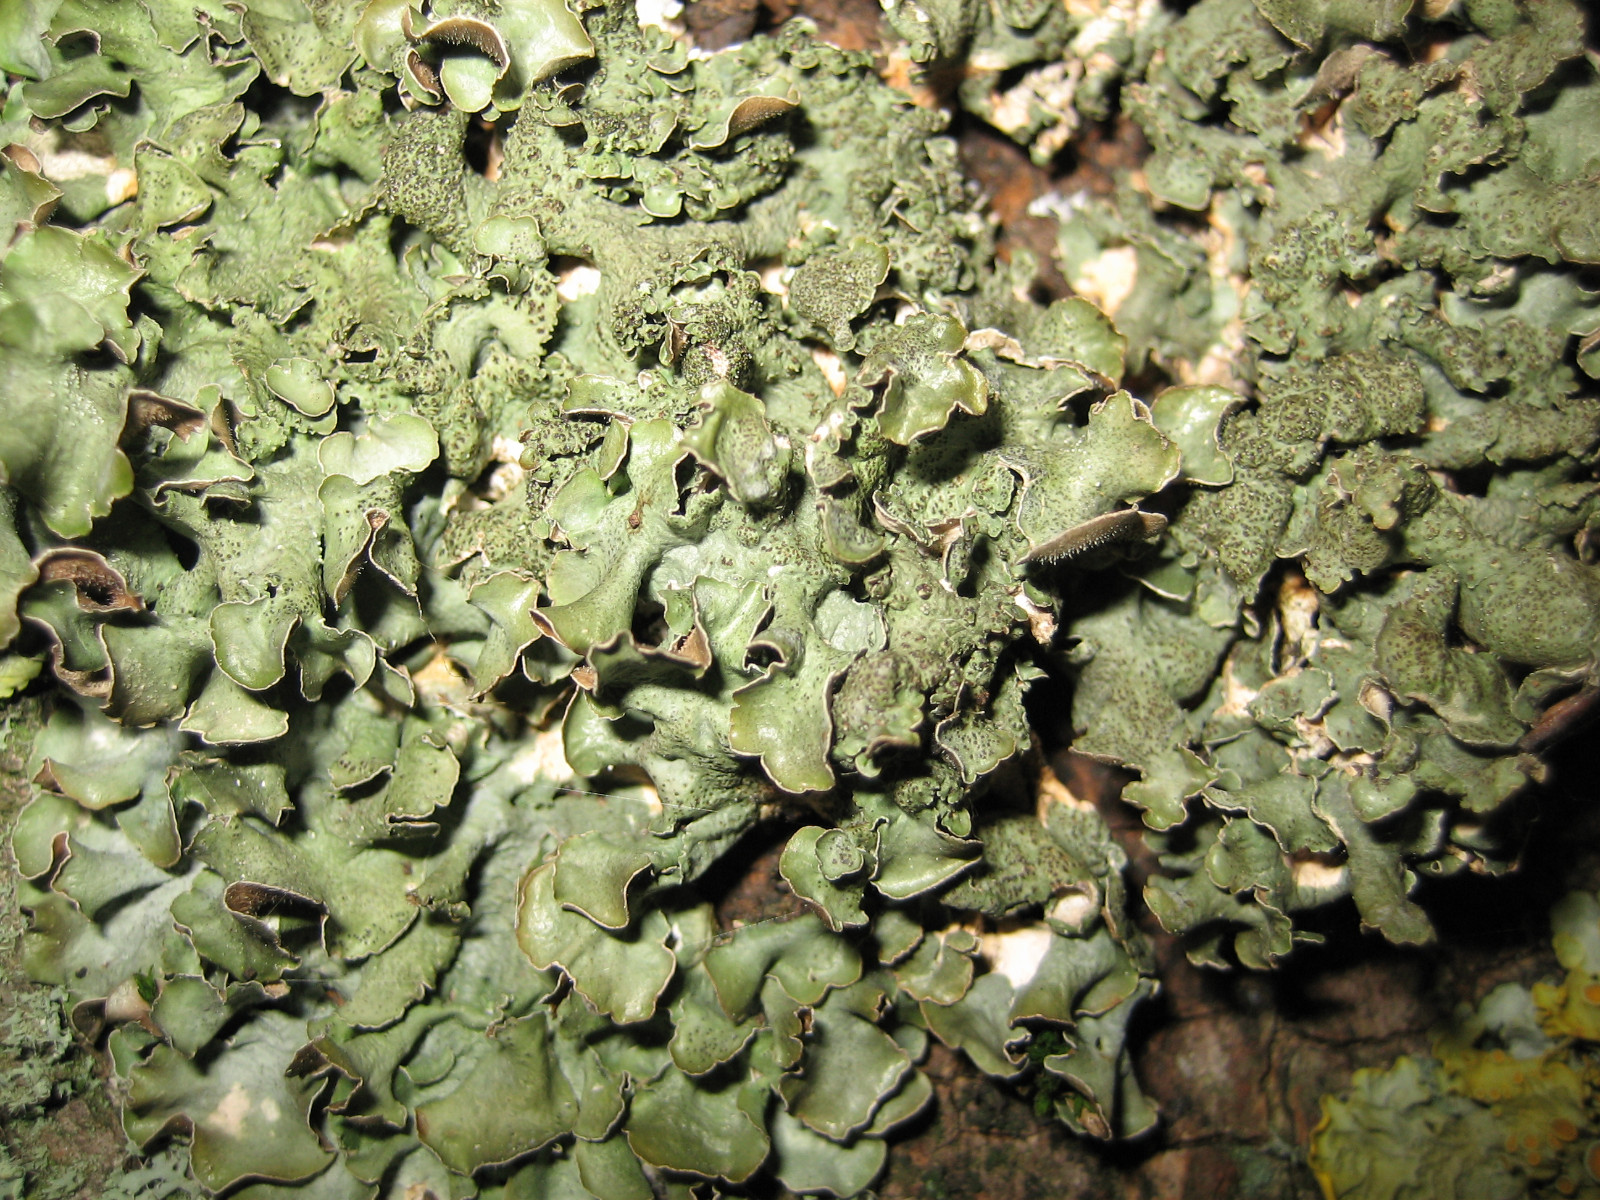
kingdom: Fungi
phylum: Ascomycota
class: Lecanoromycetes
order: Lecanorales
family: Parmeliaceae
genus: Pleurosticta
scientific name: Pleurosticta acetabulum
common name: stor skållav
